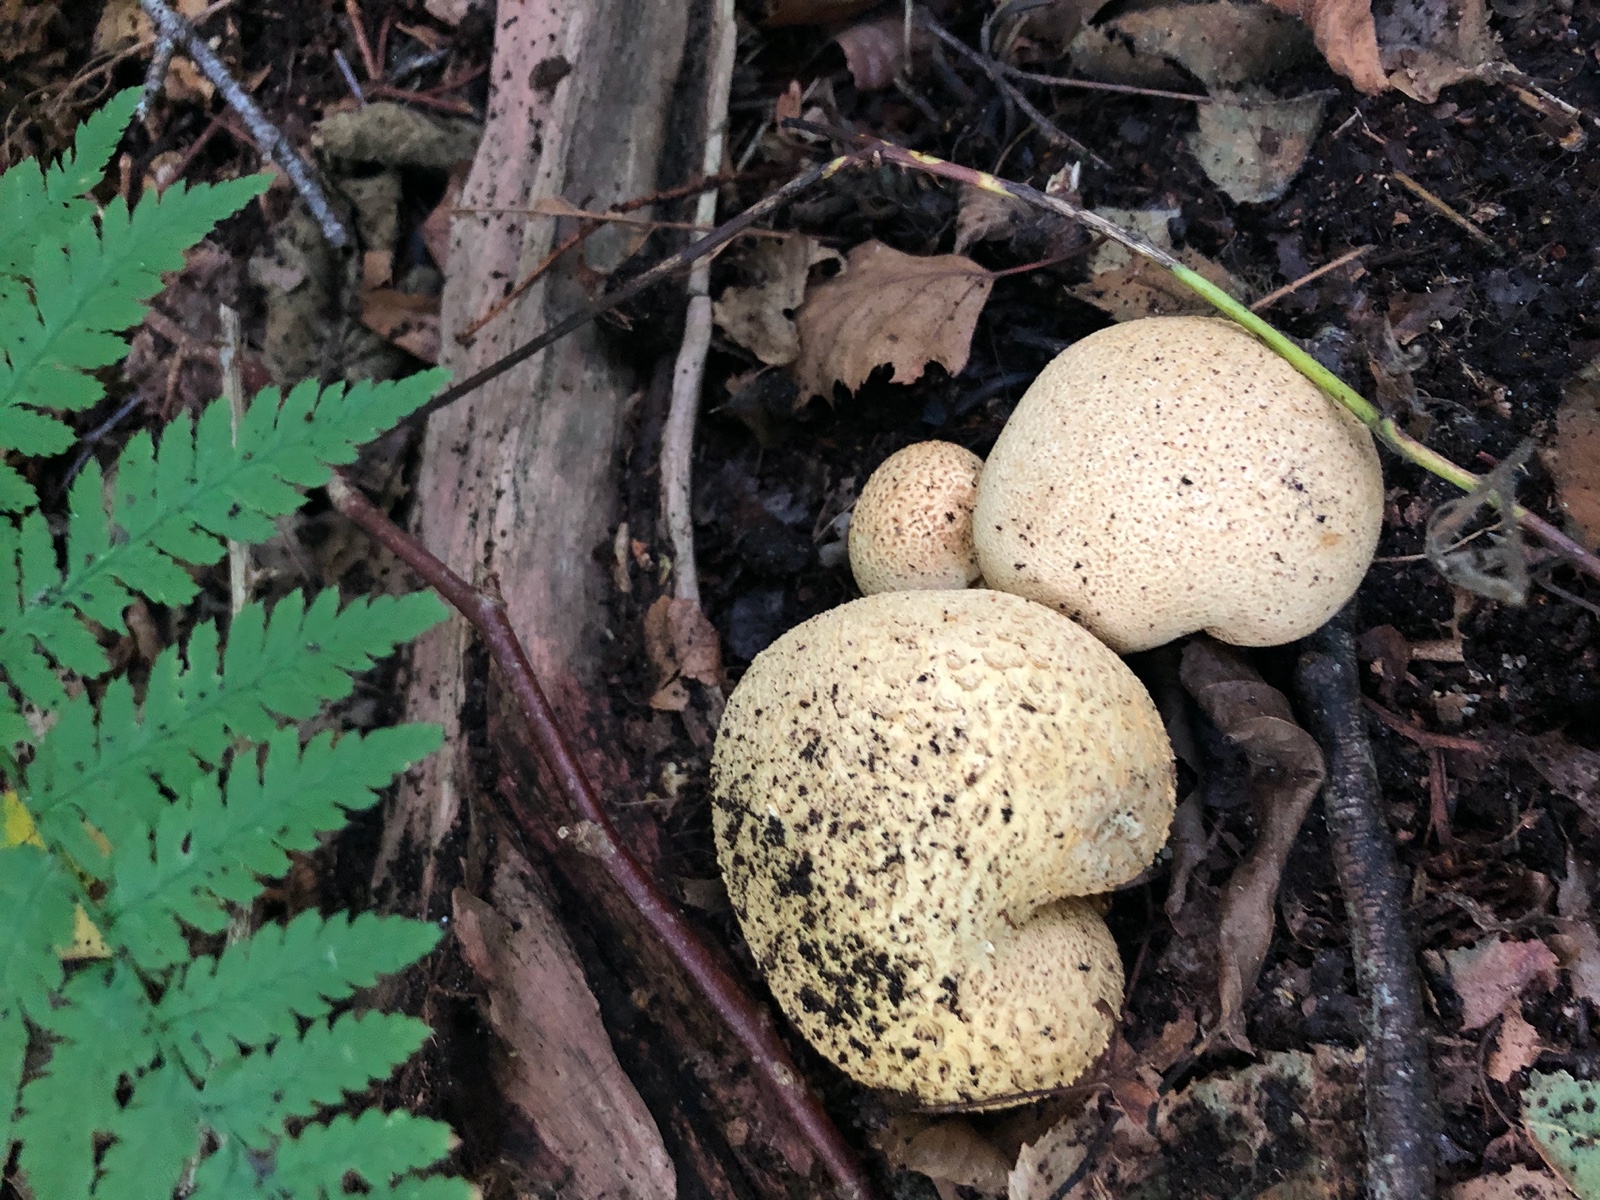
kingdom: Fungi
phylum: Basidiomycota
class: Agaricomycetes
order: Boletales
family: Sclerodermataceae
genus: Scleroderma
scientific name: Scleroderma citrinum
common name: almindelig bruskbold
